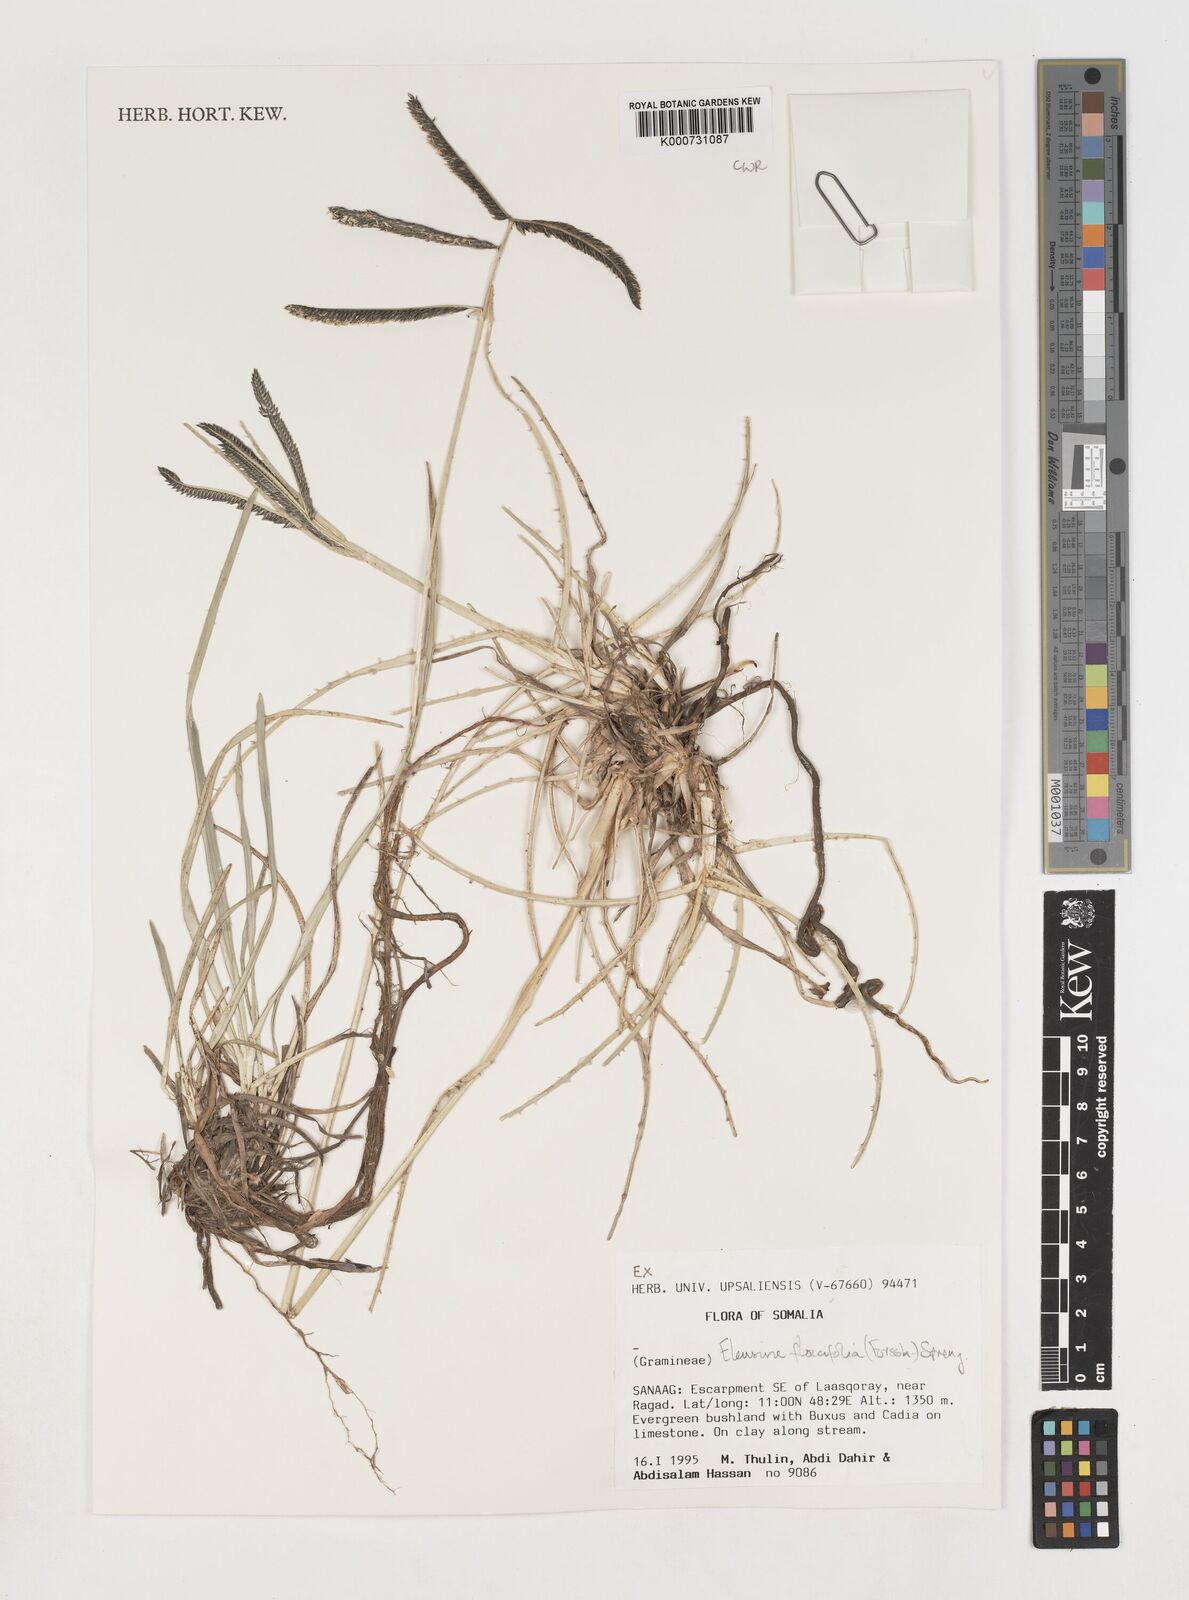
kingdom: Plantae
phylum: Tracheophyta
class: Liliopsida
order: Poales
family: Poaceae
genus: Eleusine
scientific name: Eleusine floccifolia
